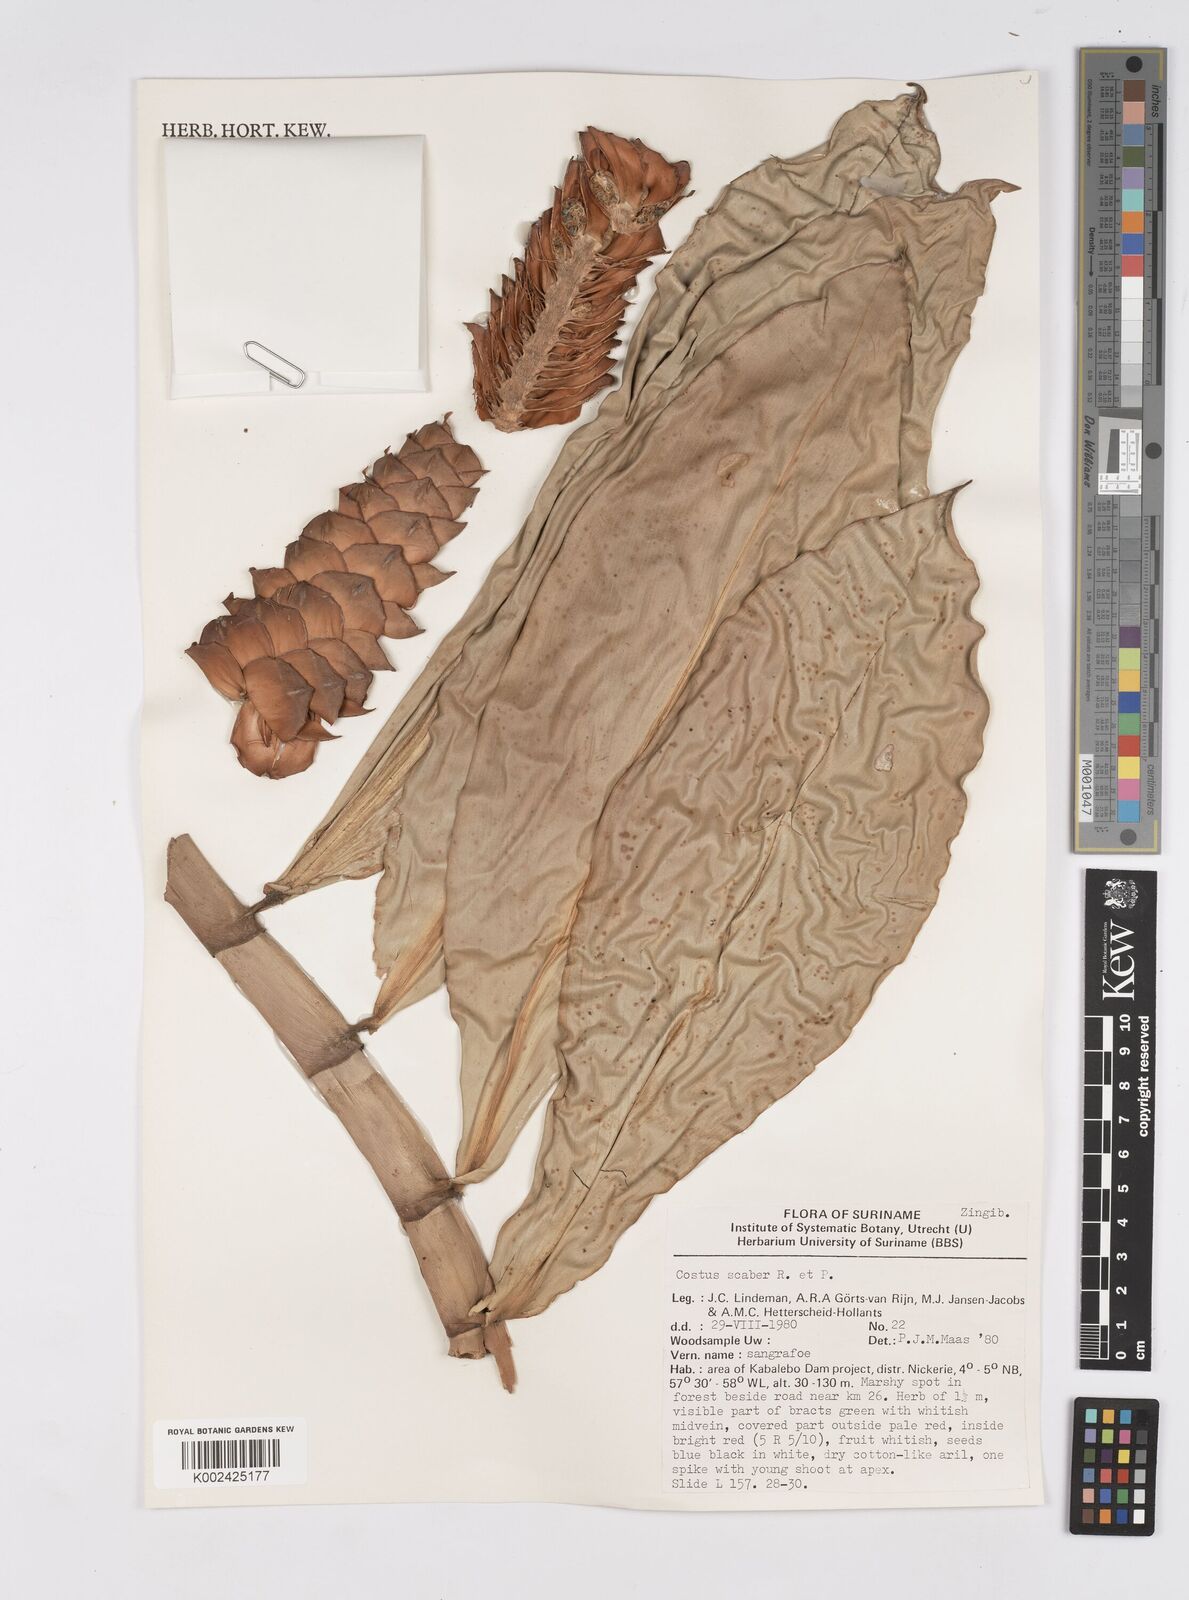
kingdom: Plantae
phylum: Tracheophyta
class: Liliopsida
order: Zingiberales
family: Costaceae
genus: Costus
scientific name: Costus scaber
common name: Spiral head ginger
